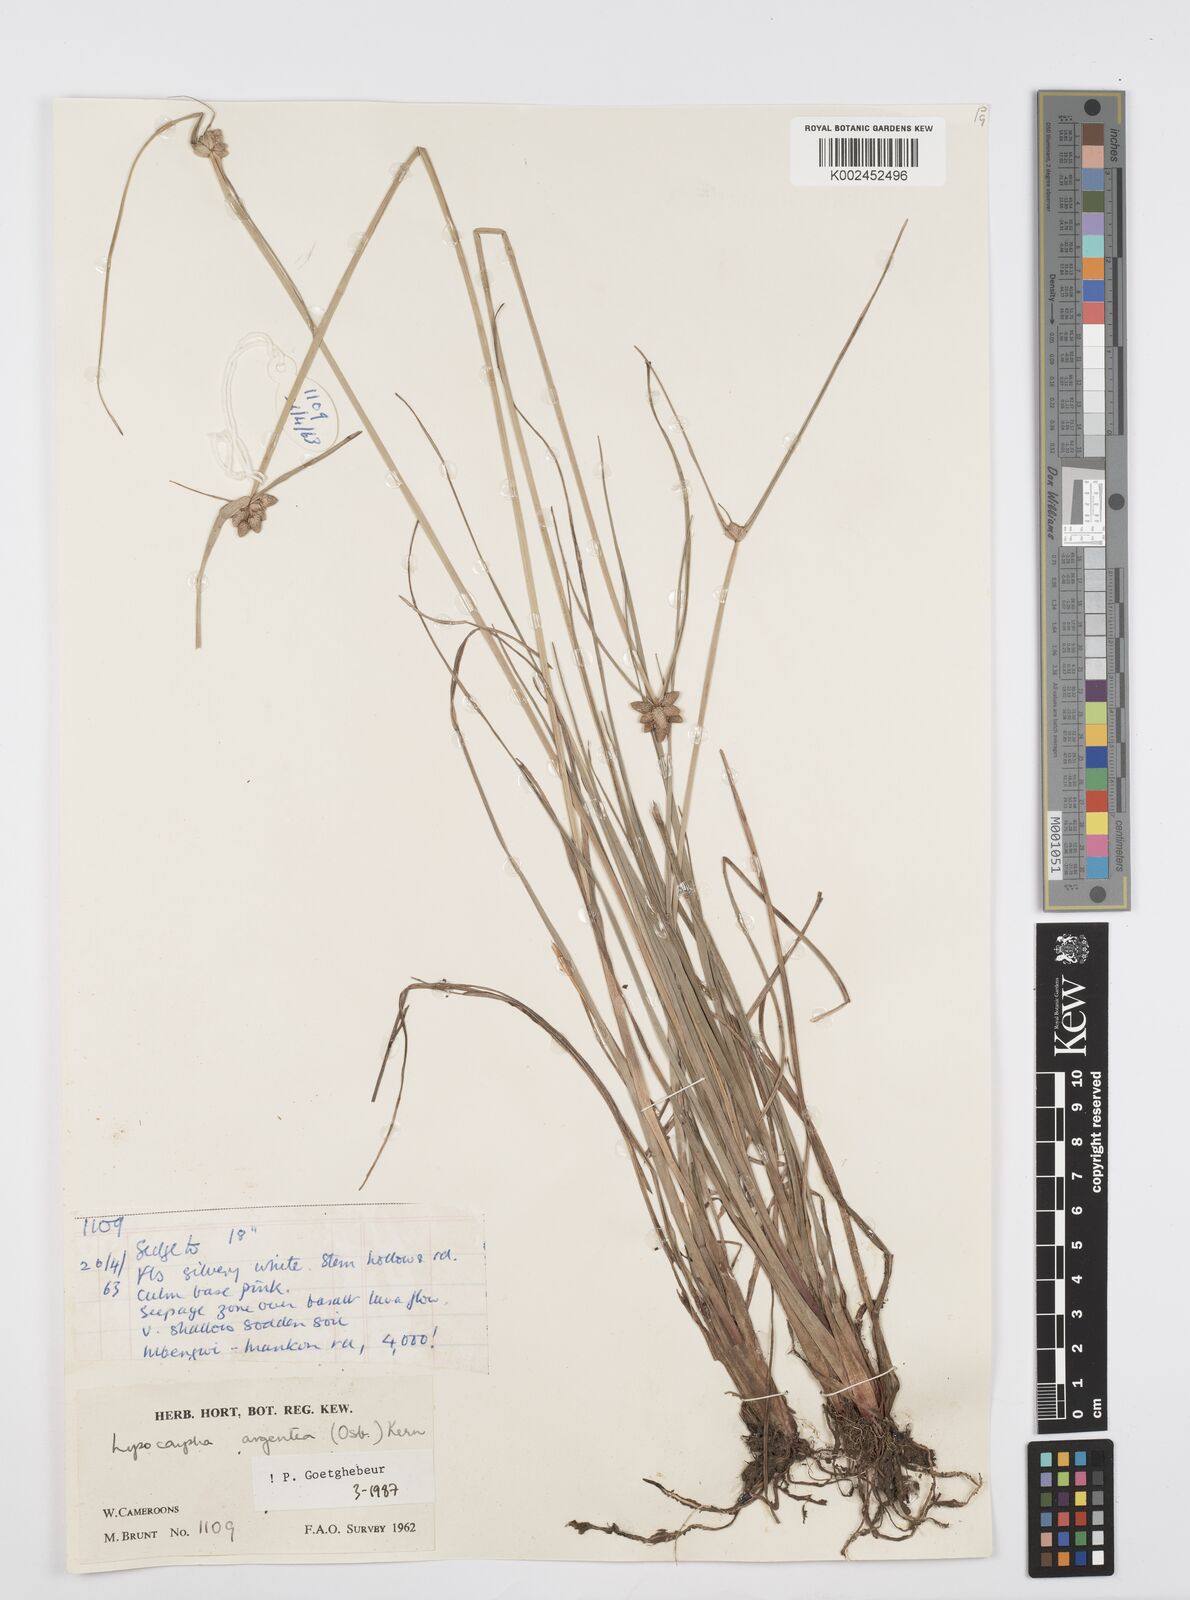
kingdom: Plantae
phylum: Tracheophyta
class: Liliopsida
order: Poales
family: Cyperaceae
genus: Cyperus
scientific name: Cyperus albescens
